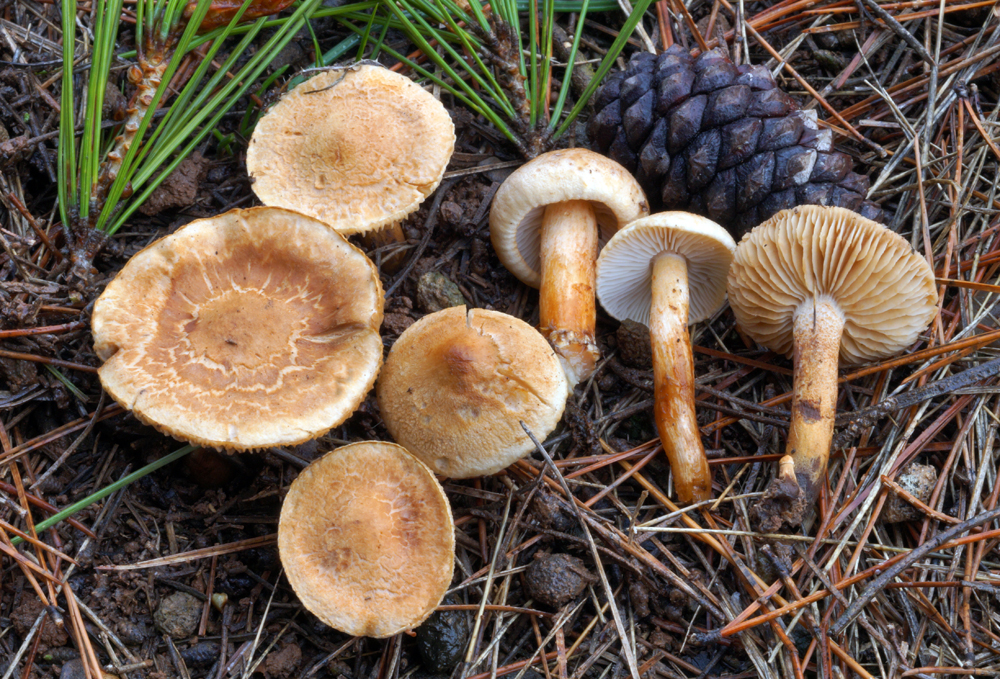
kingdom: Fungi
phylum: Basidiomycota
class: Agaricomycetes
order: Agaricales
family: Tricholomataceae
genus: Tricholoma
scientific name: Tricholoma psammopus
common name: grynstokket ridderhat
